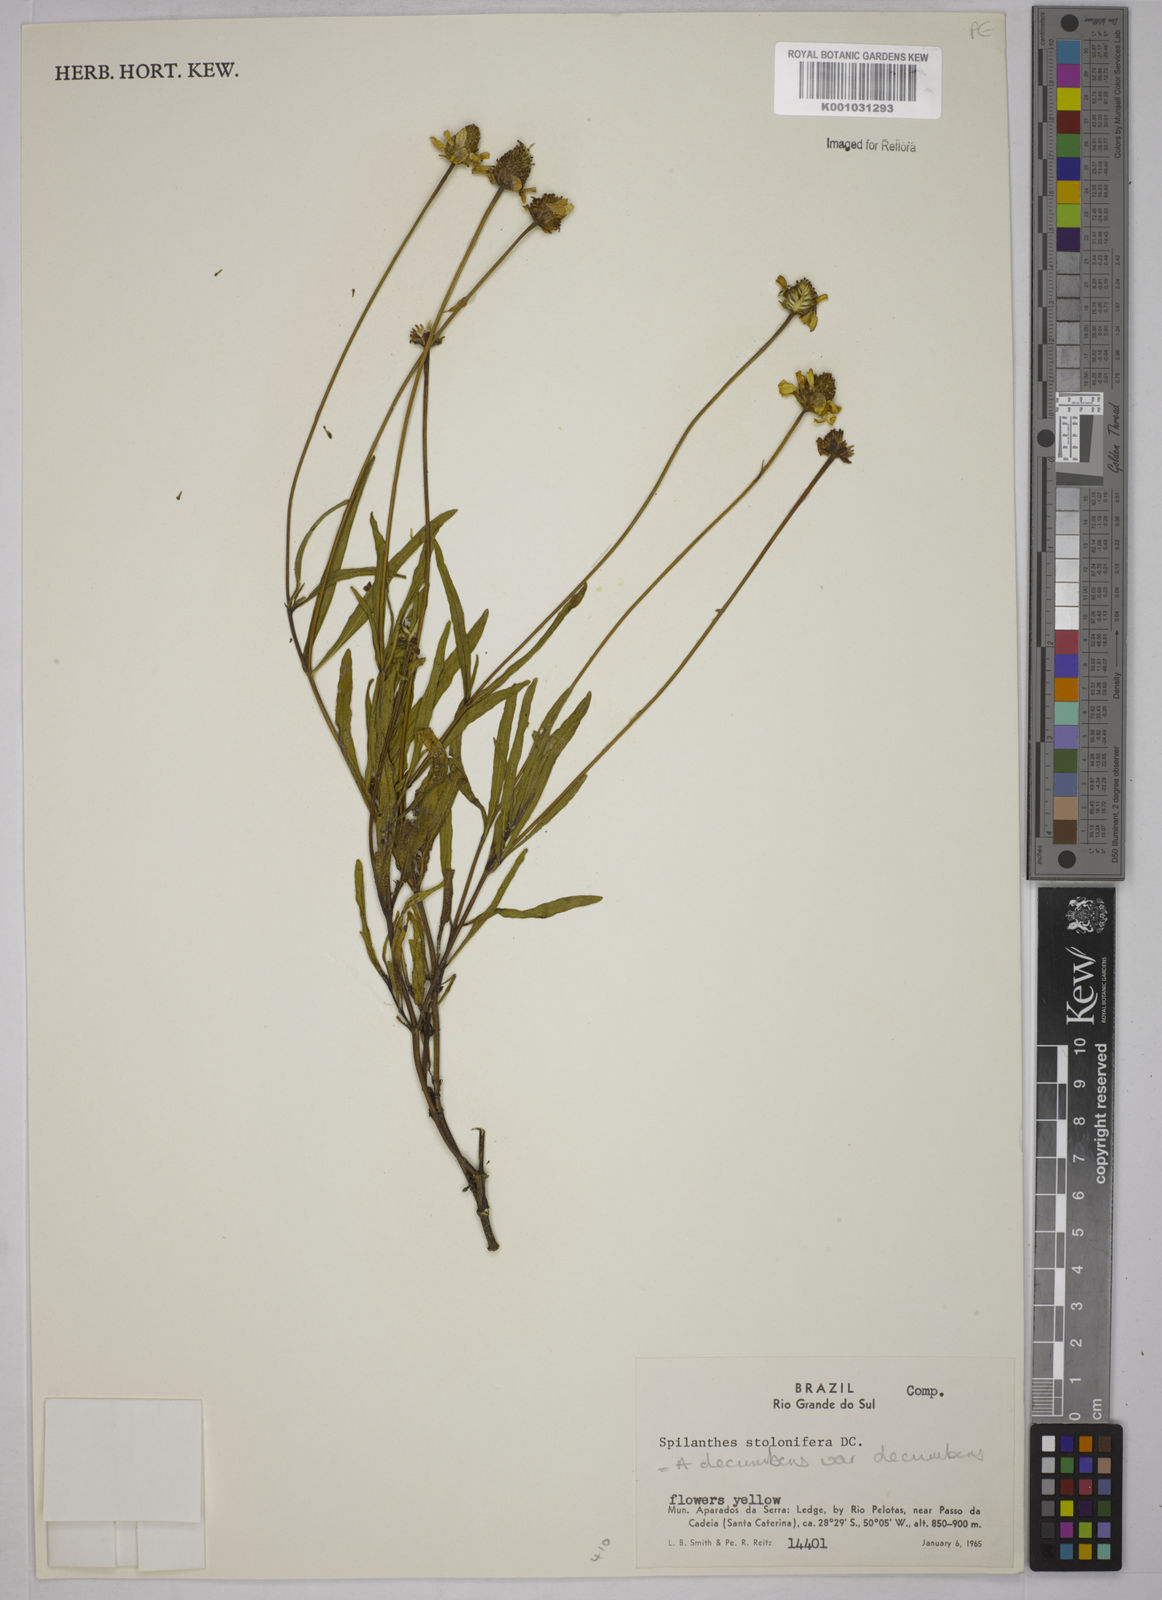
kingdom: Plantae
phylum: Tracheophyta
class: Magnoliopsida
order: Asterales
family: Asteraceae
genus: Acmella
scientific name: Acmella decumbens
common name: Creeping spotflower
